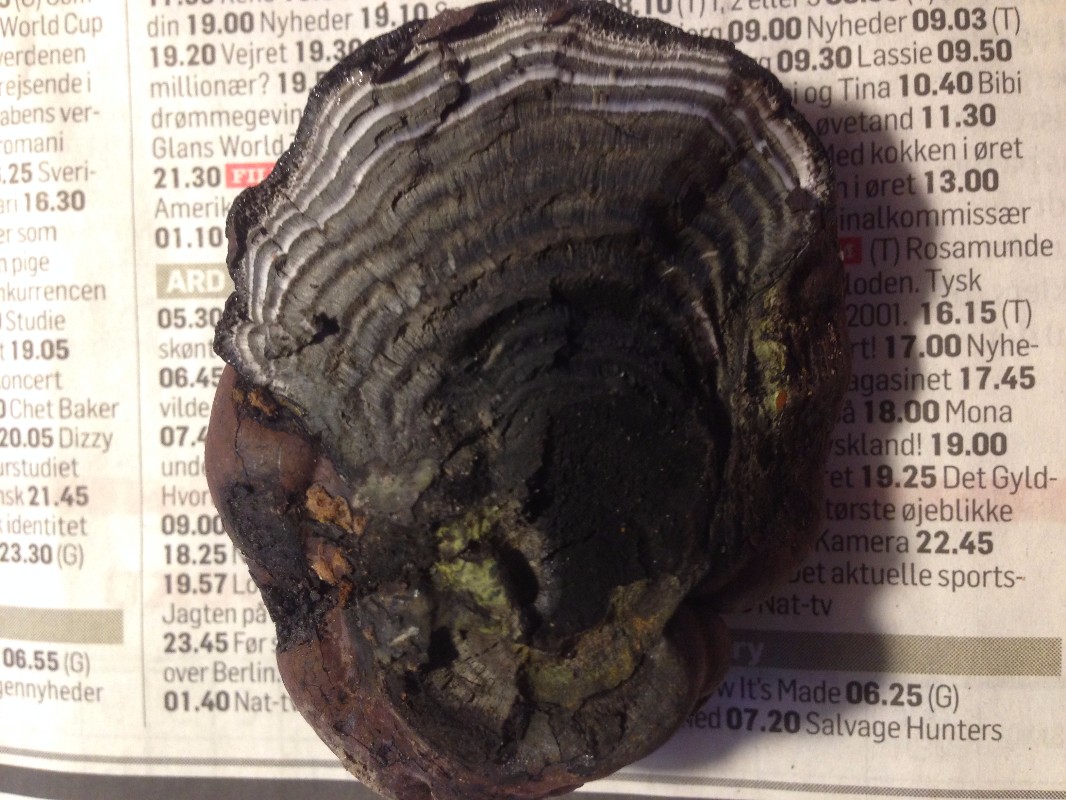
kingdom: Fungi
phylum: Ascomycota
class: Sordariomycetes
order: Xylariales
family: Hypoxylaceae
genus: Daldinia
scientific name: Daldinia concentrica
